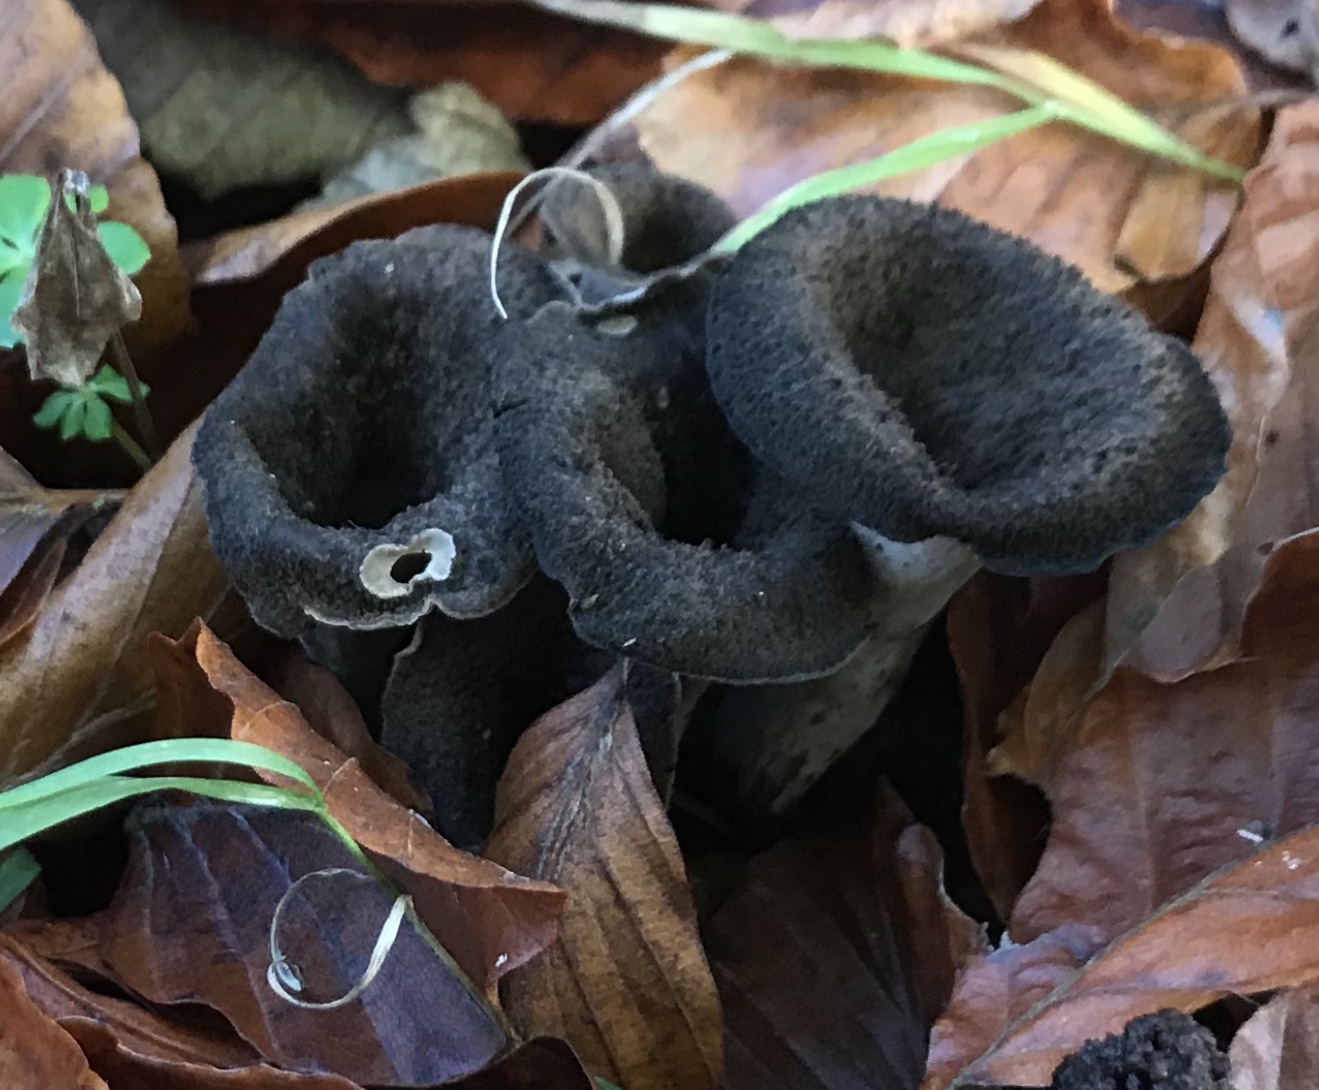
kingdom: Fungi
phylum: Basidiomycota
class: Agaricomycetes
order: Cantharellales
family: Hydnaceae
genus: Craterellus
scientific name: Craterellus cornucopioides
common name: trompetsvamp
